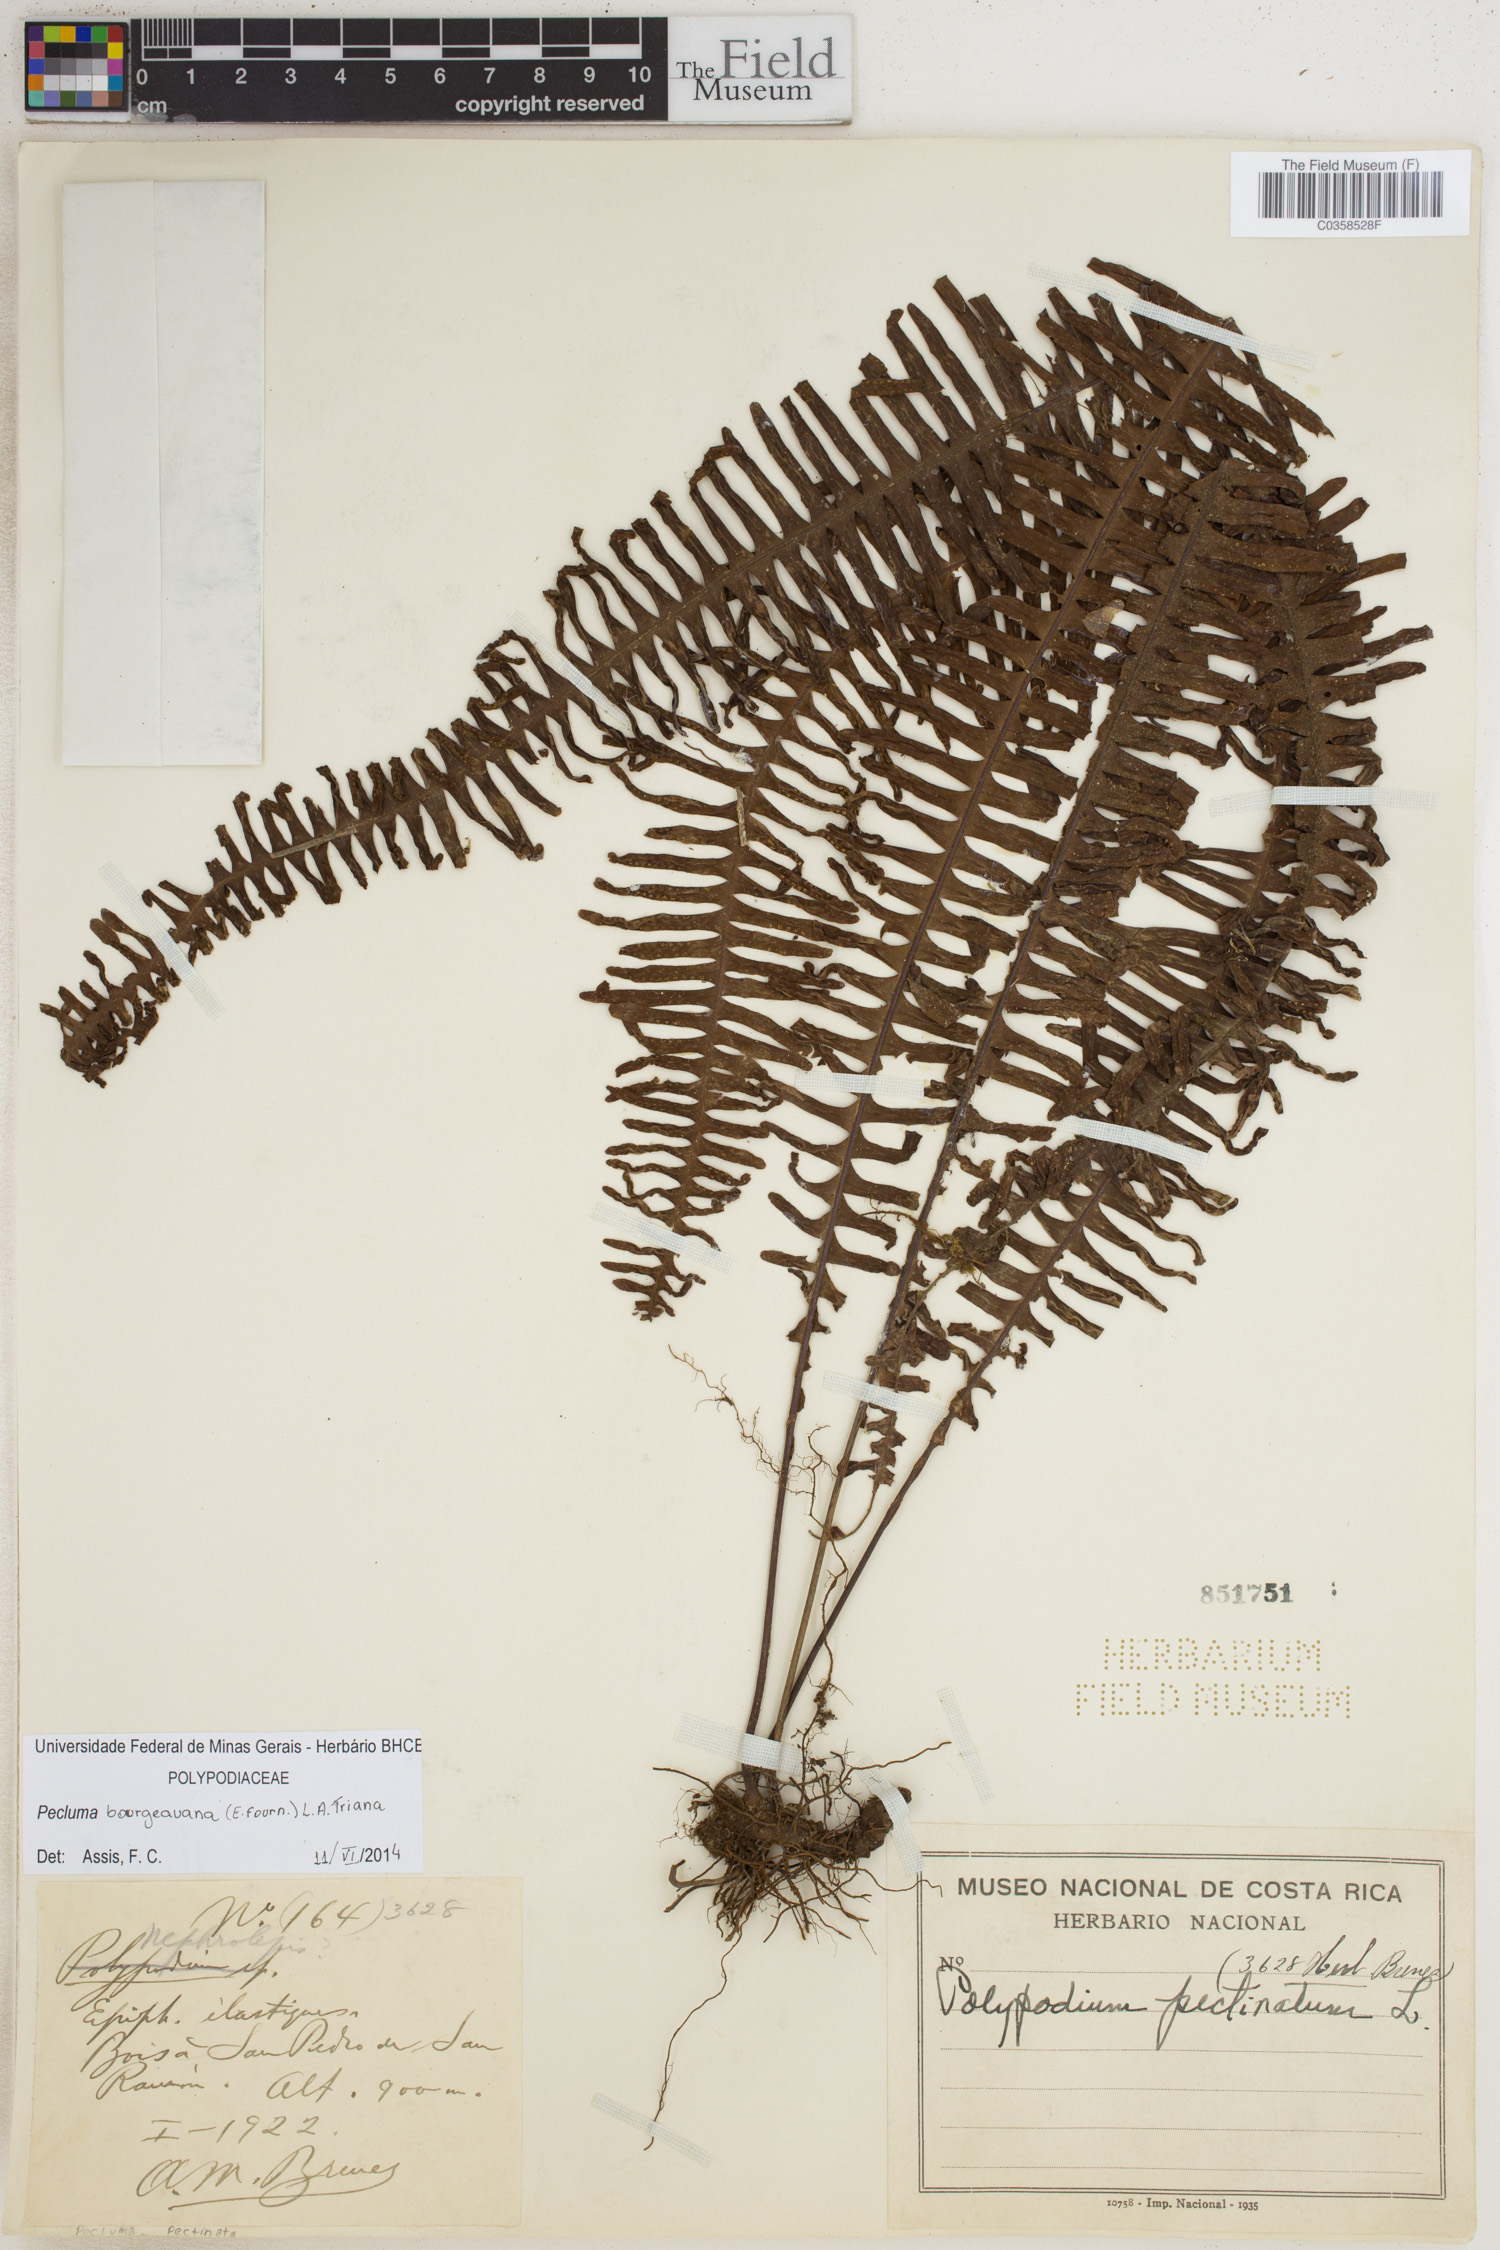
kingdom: Plantae
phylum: Tracheophyta
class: Polypodiopsida
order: Polypodiales
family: Polypodiaceae
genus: Pecluma
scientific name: Pecluma bourgeauana
